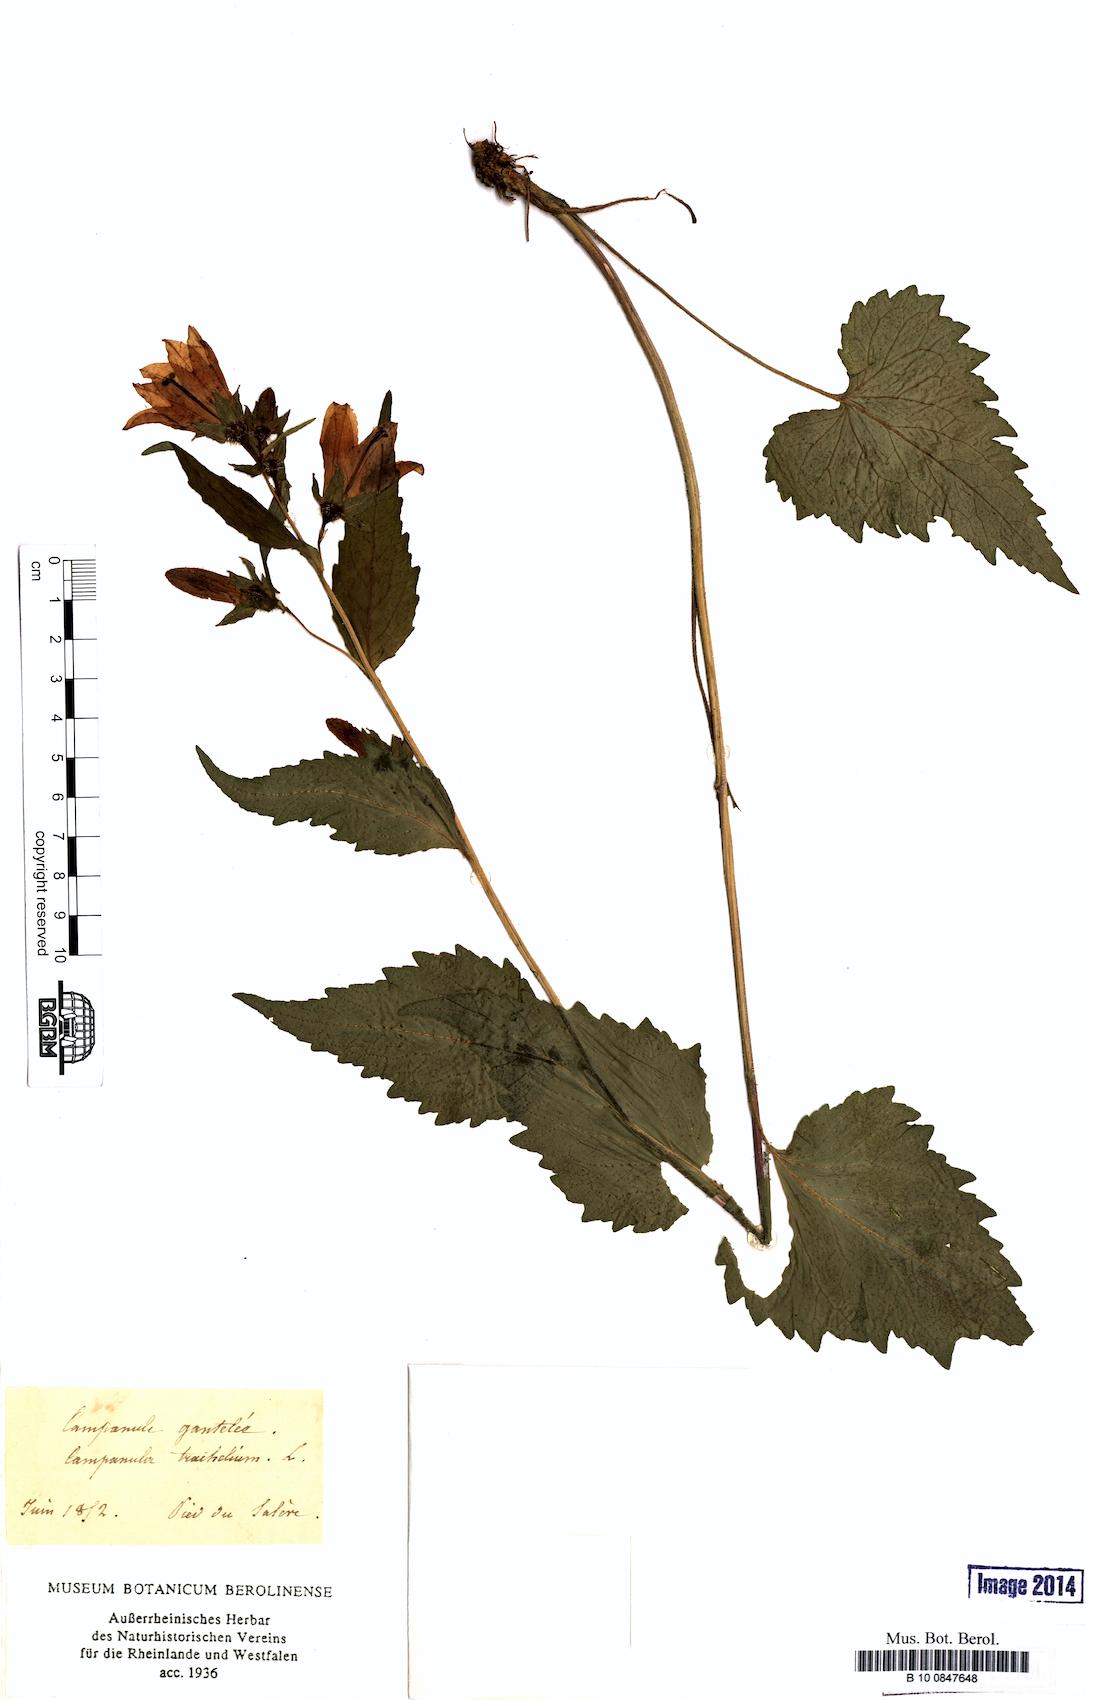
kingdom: Plantae
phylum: Tracheophyta
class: Magnoliopsida
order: Asterales
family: Campanulaceae
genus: Campanula
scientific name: Campanula trachelium
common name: Nettle-leaved bellflower
